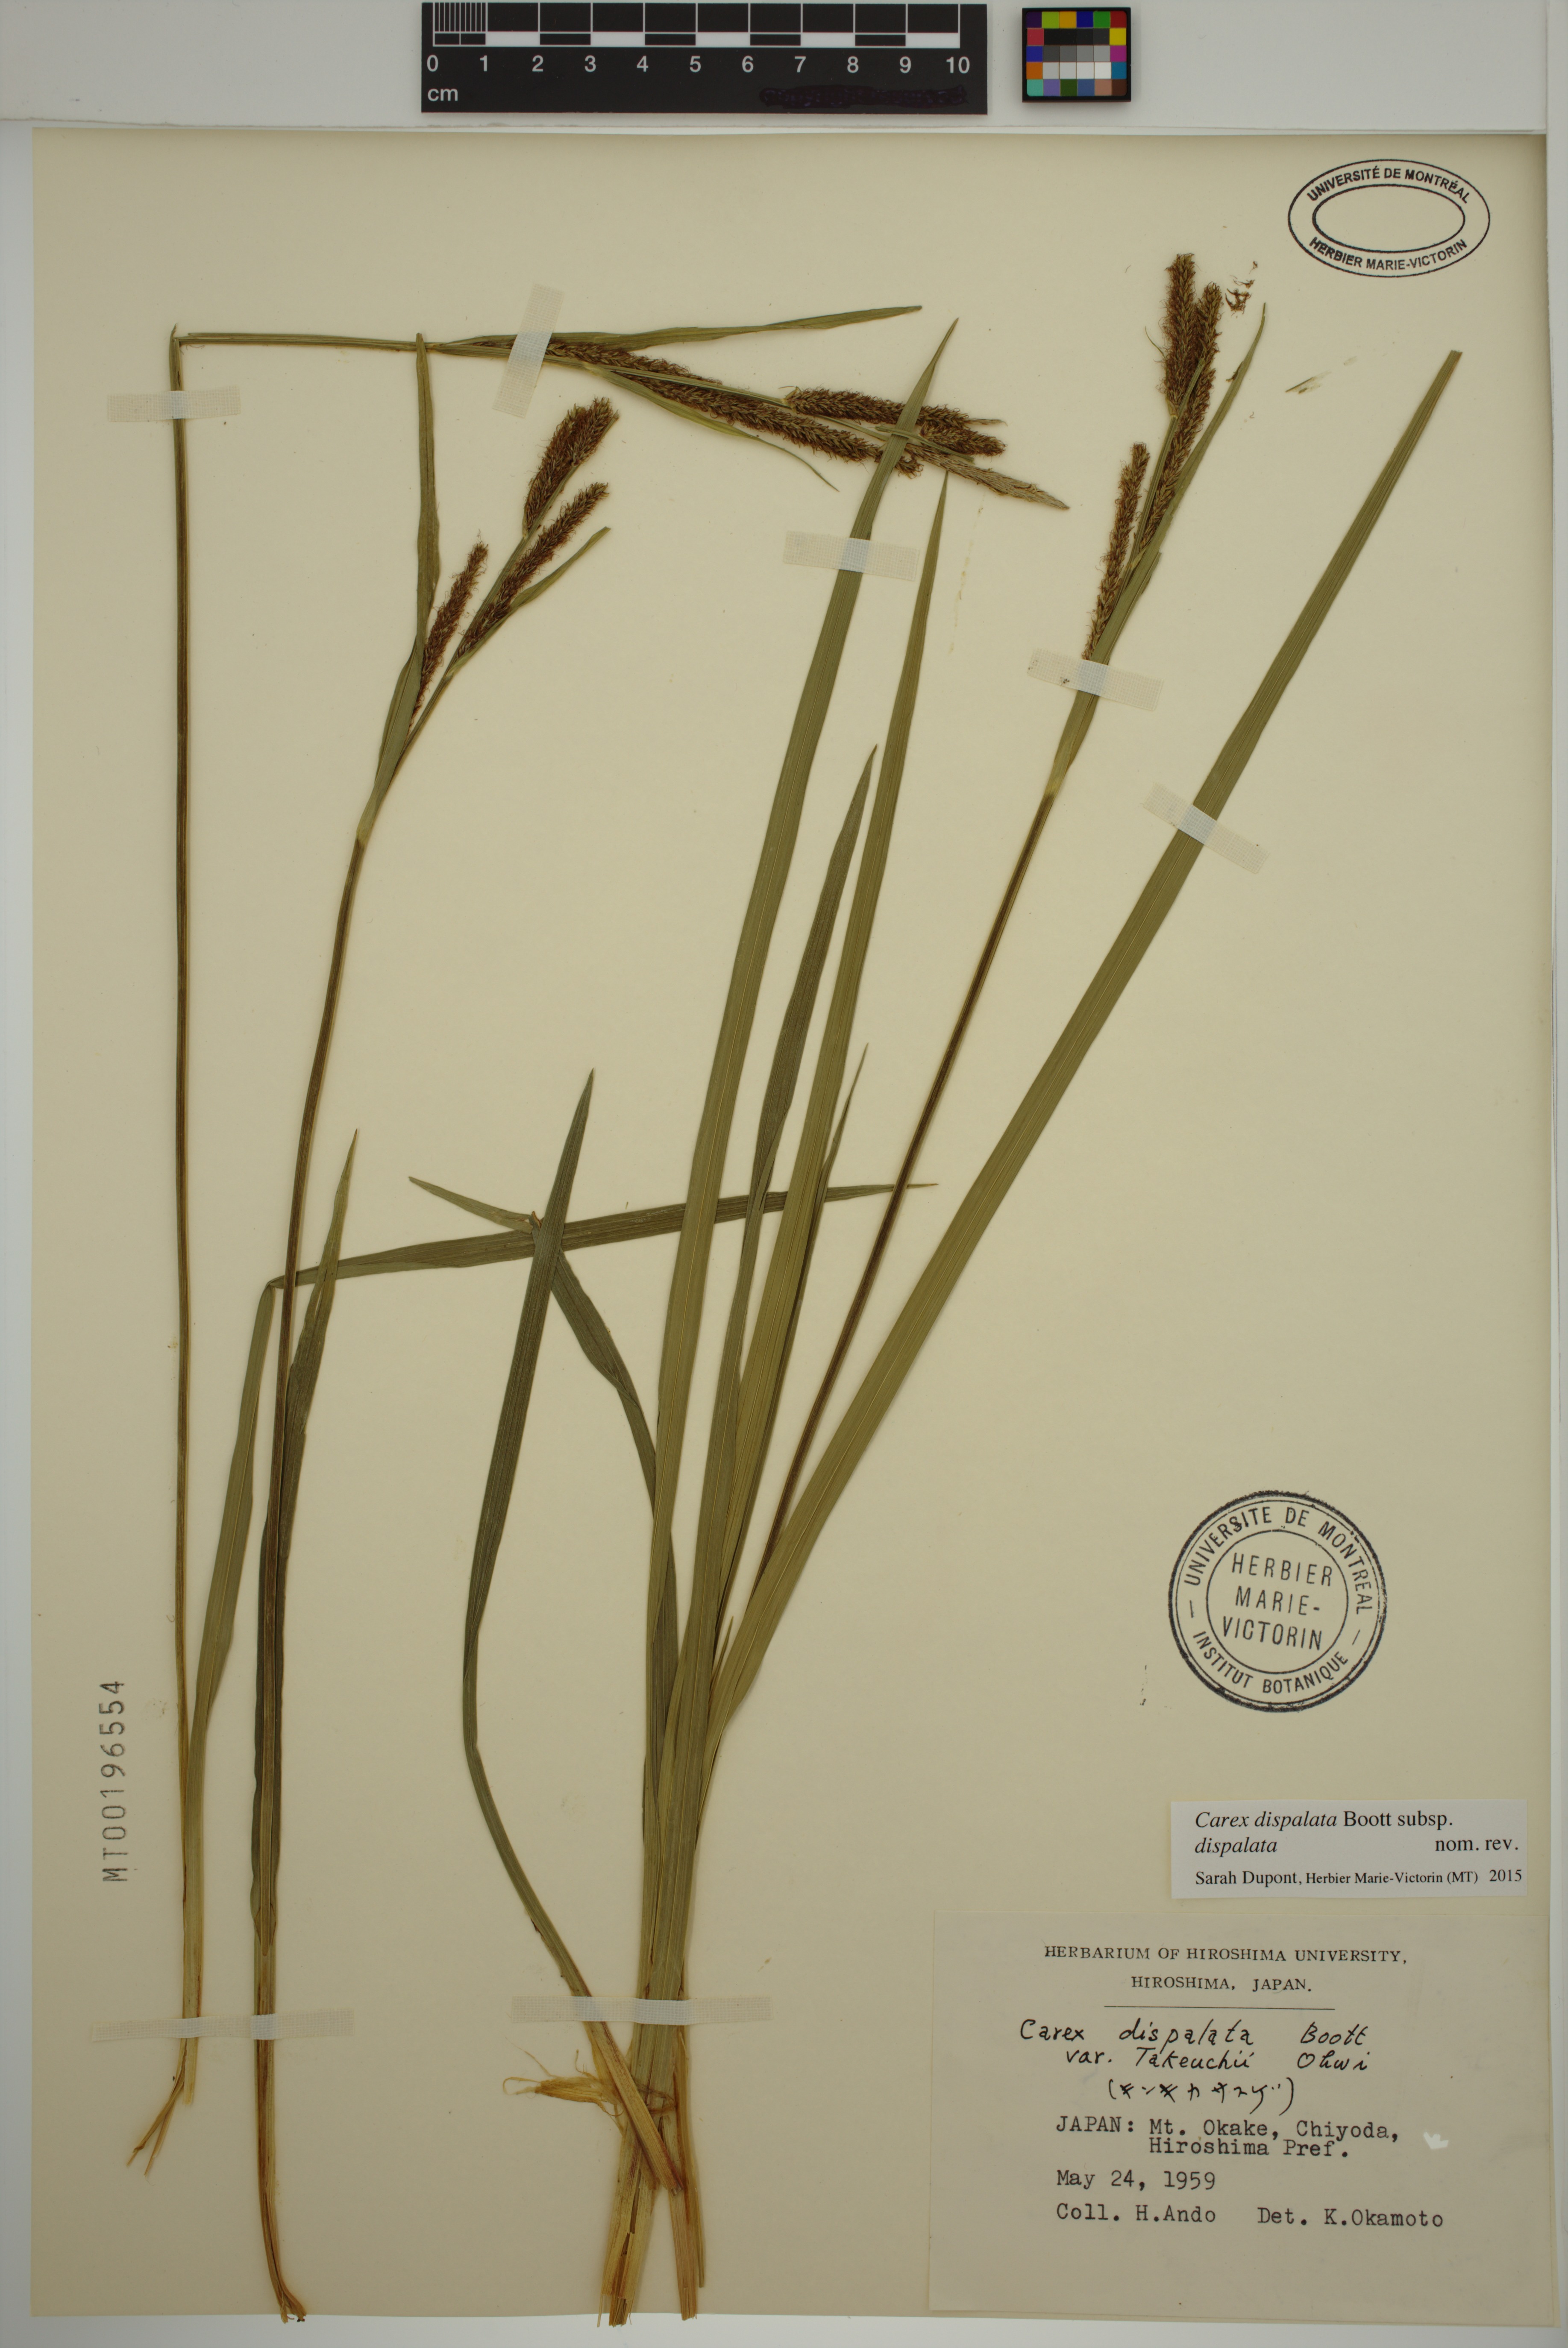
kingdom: Plantae
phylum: Tracheophyta
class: Liliopsida
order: Poales
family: Cyperaceae
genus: Carex
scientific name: Carex dispalata
